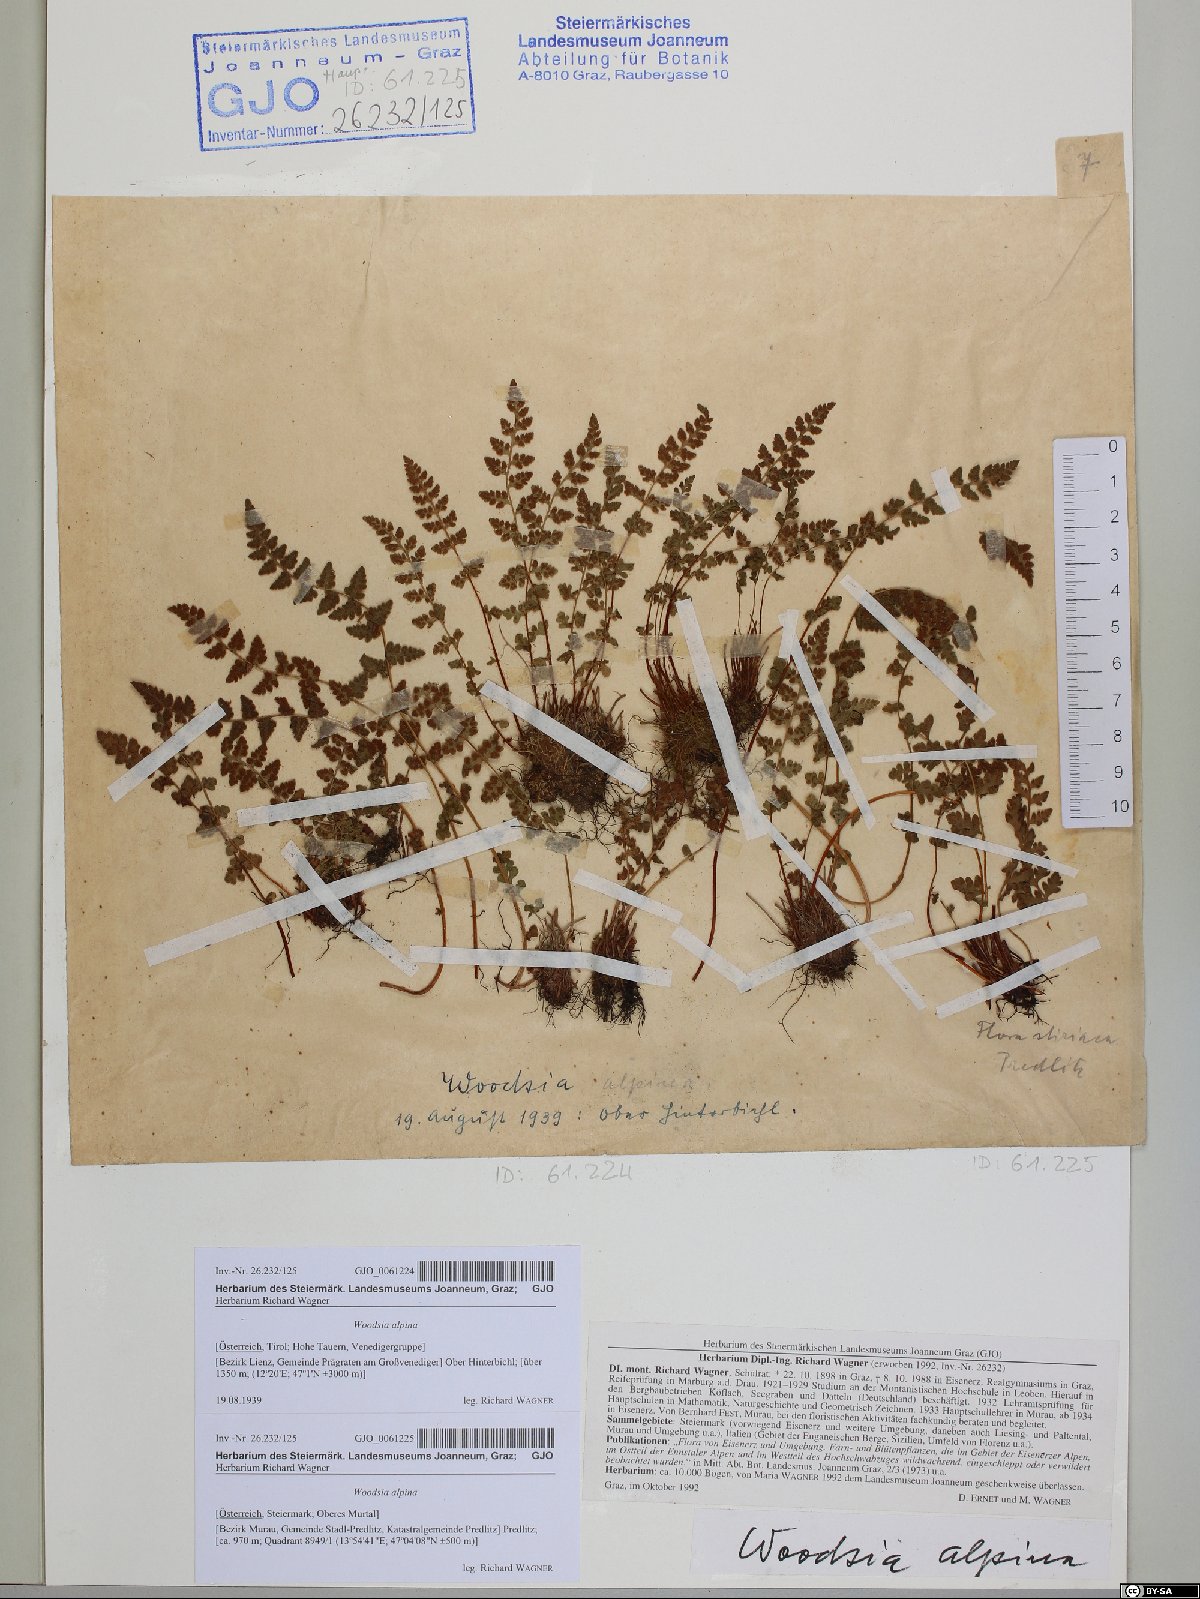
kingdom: Plantae
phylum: Tracheophyta
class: Polypodiopsida
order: Polypodiales
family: Woodsiaceae
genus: Woodsia
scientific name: Woodsia alpina
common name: Alpine woodsia
